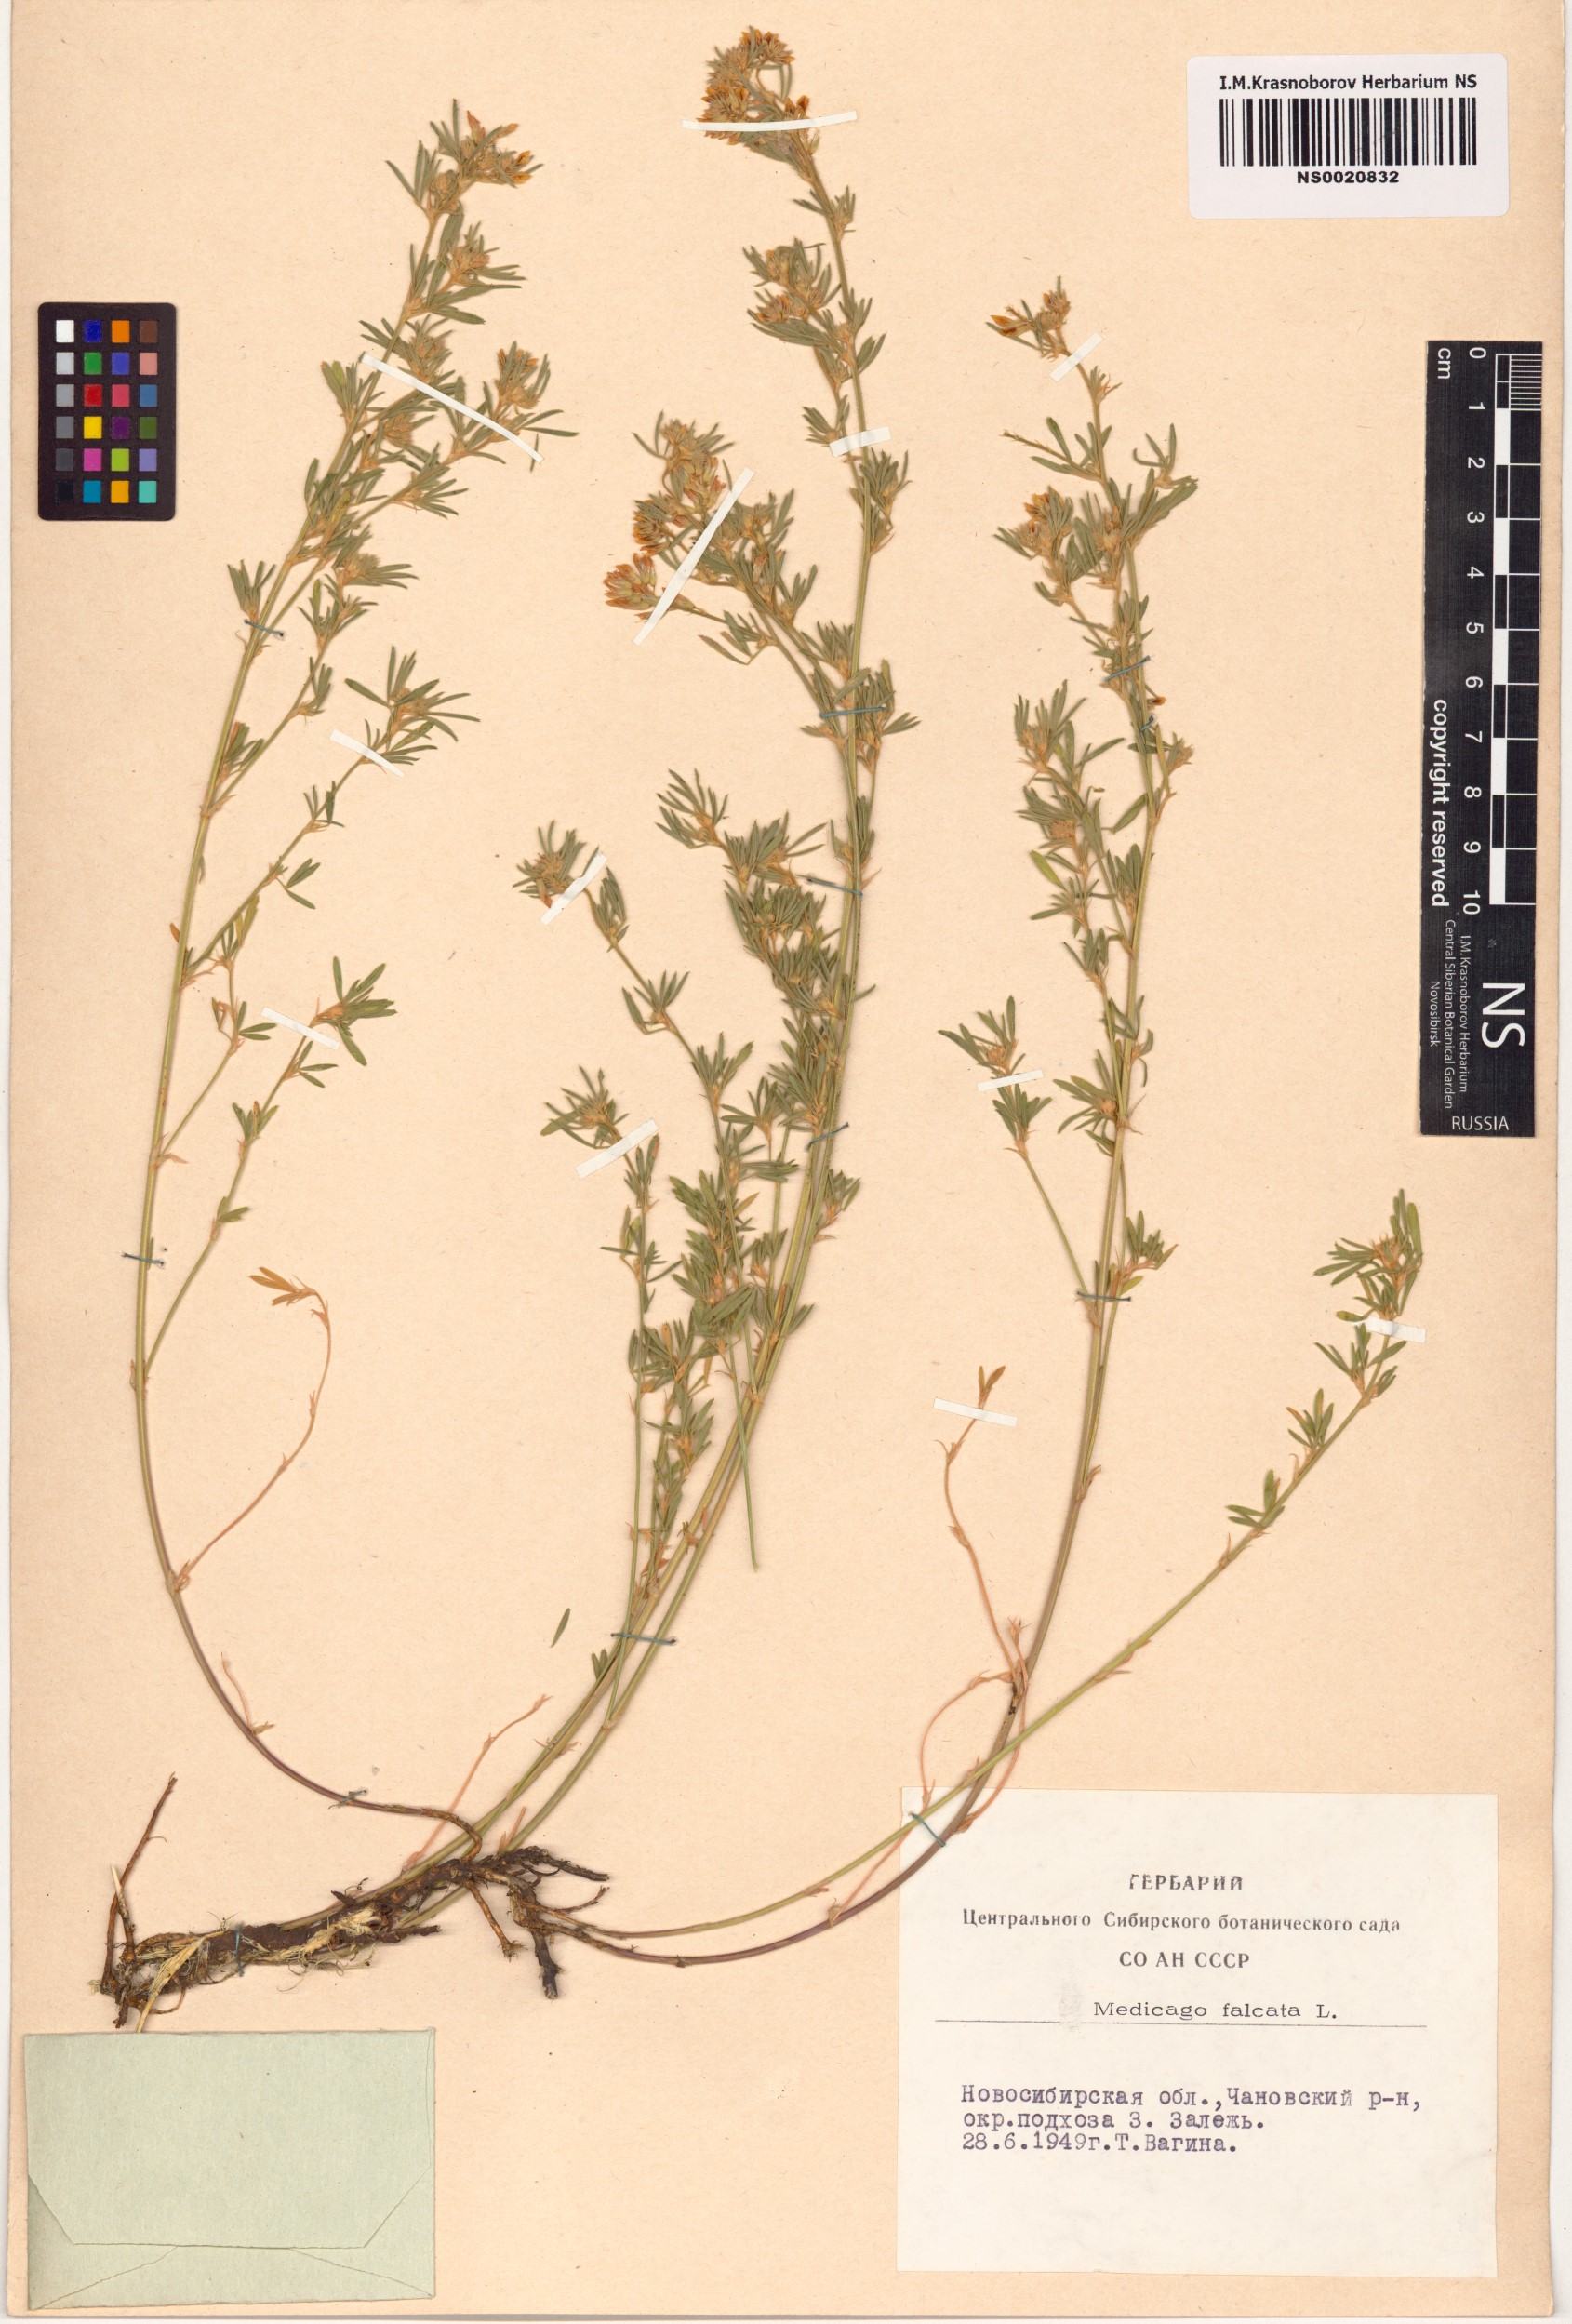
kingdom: Plantae
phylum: Tracheophyta
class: Magnoliopsida
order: Fabales
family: Fabaceae
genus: Medicago
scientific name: Medicago falcata
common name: Sickle medick
